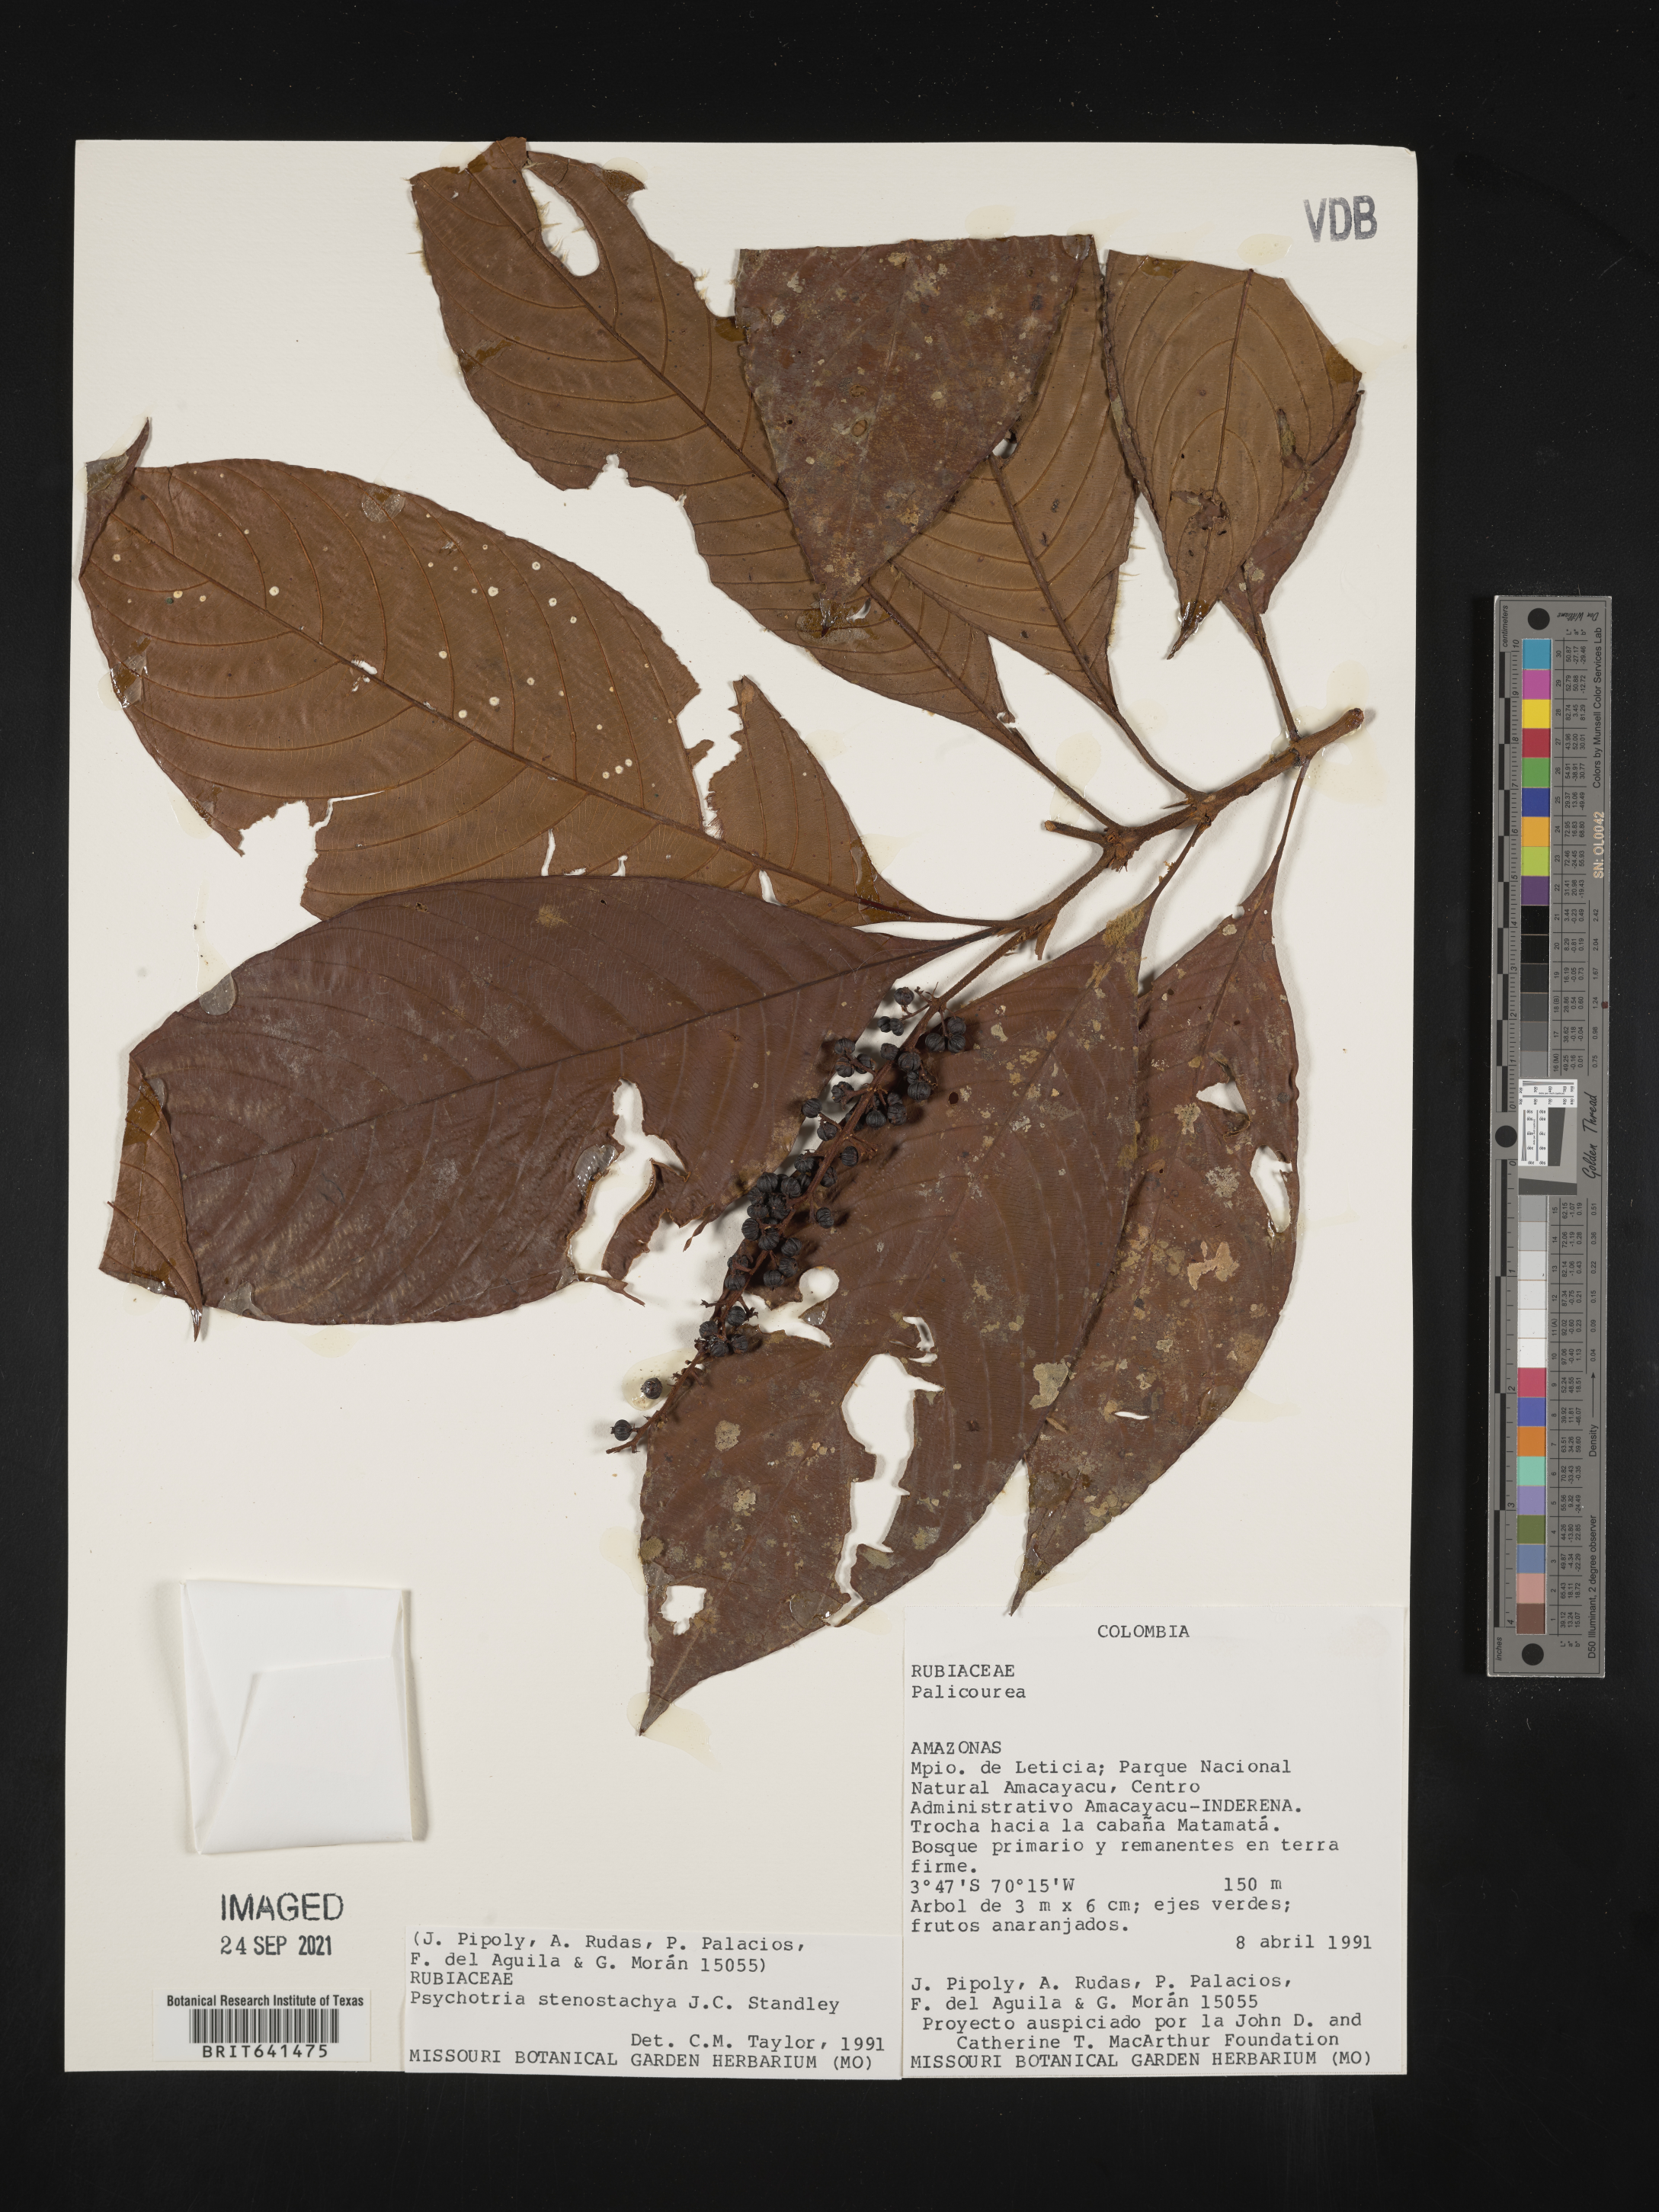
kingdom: Plantae
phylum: Tracheophyta
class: Magnoliopsida
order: Gentianales
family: Rubiaceae
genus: Psychotria
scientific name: Psychotria
